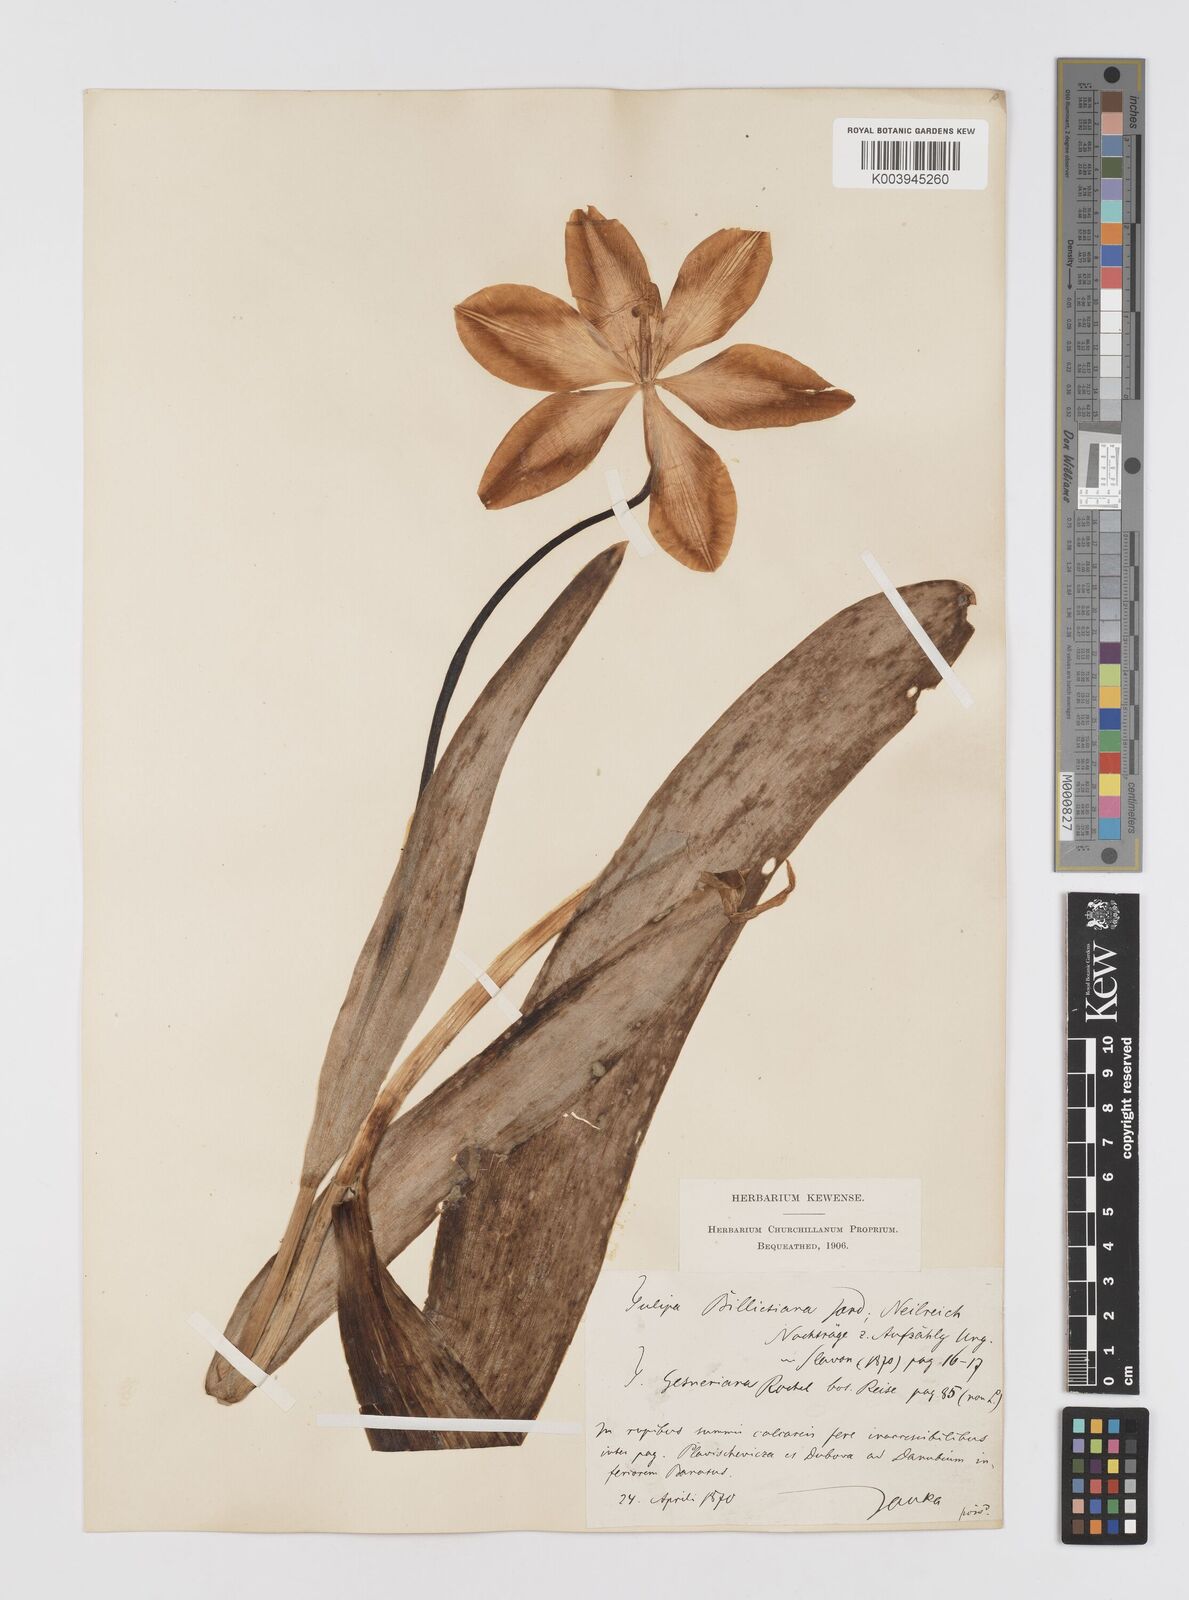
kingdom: Plantae
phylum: Tracheophyta
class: Liliopsida
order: Liliales
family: Liliaceae
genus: Tulipa
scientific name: Tulipa hungarica
